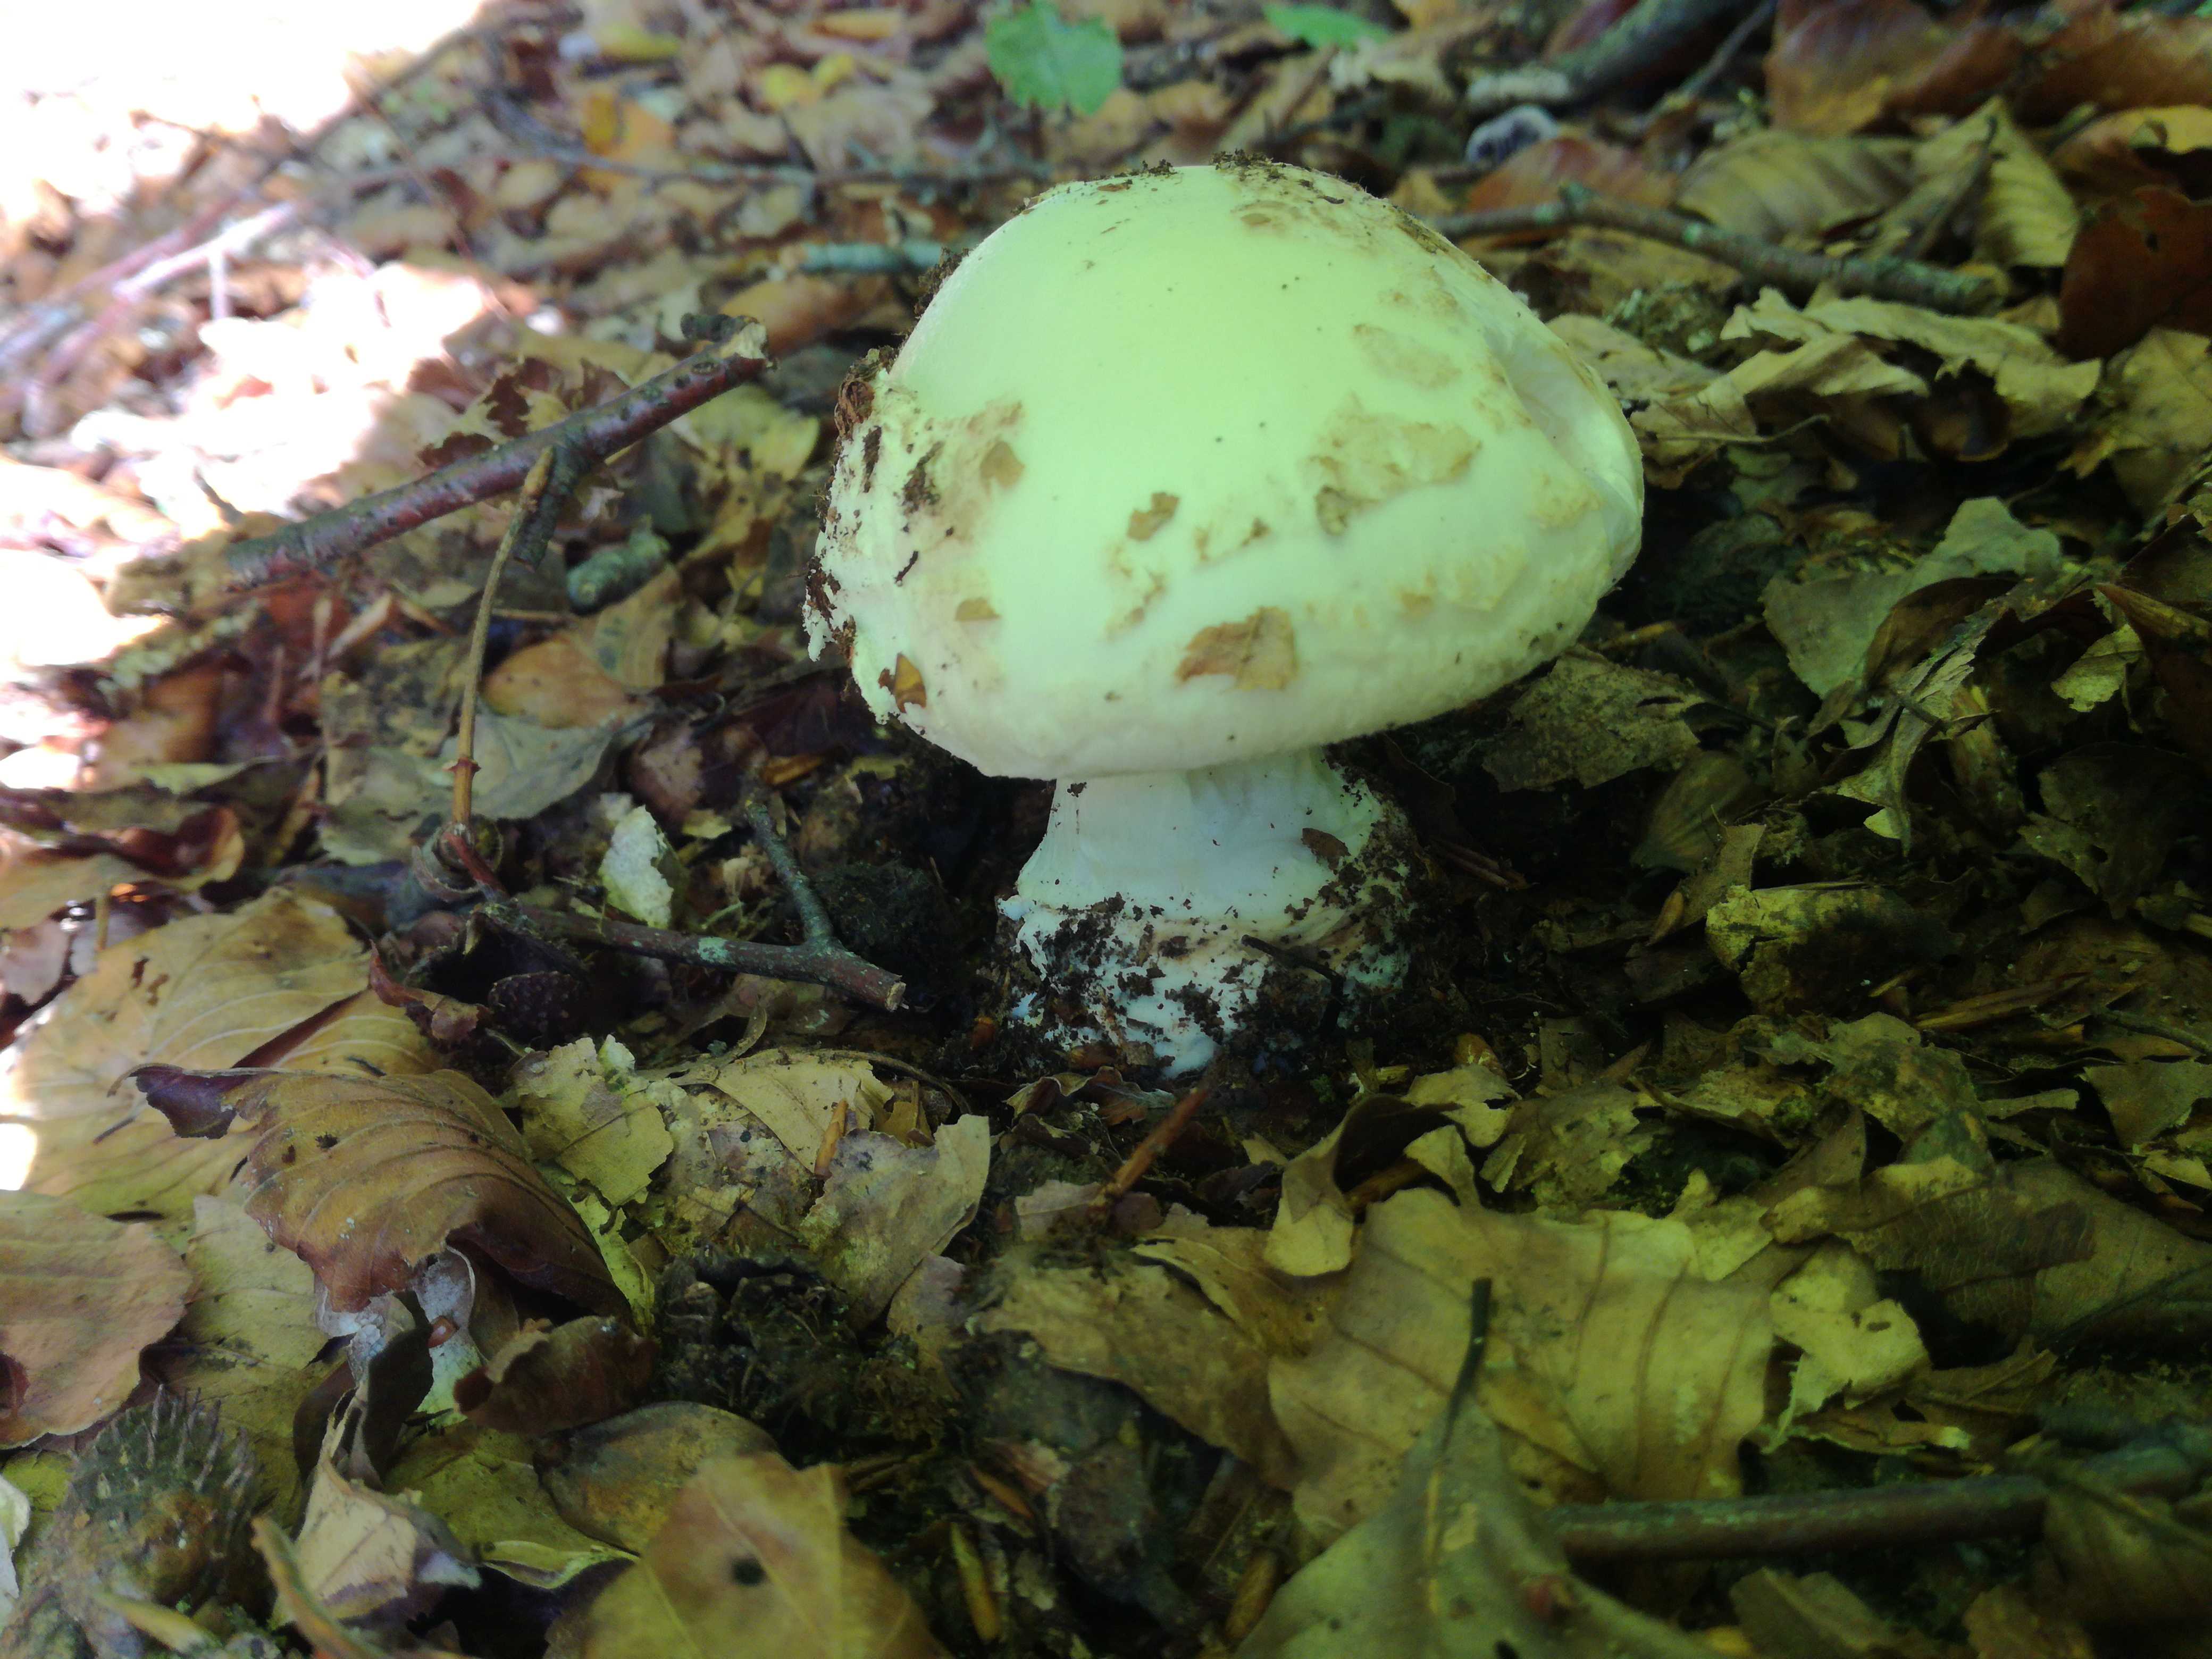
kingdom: Fungi
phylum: Basidiomycota
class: Agaricomycetes
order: Agaricales
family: Amanitaceae
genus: Amanita
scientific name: Amanita citrina
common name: kugleknoldet fluesvamp
